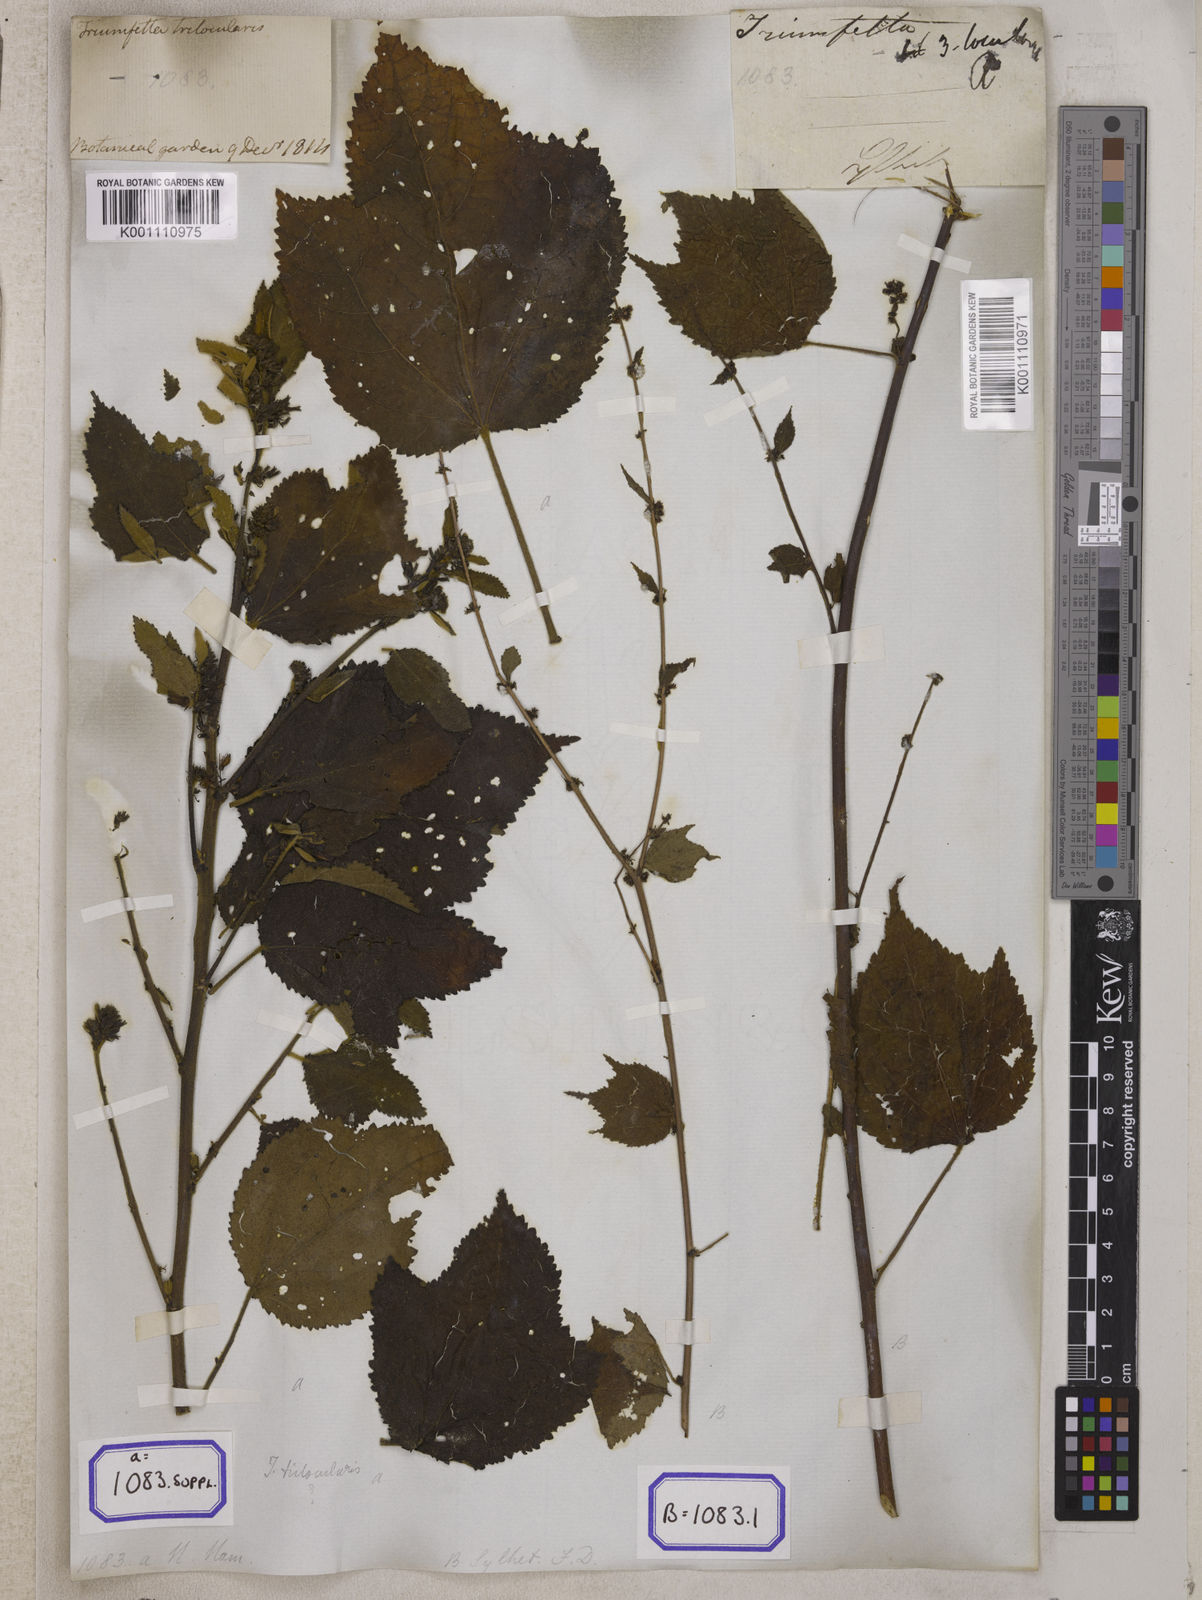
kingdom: Plantae
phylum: Tracheophyta
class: Magnoliopsida
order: Malvales
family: Malvaceae
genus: Triumfetta
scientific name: Triumfetta
